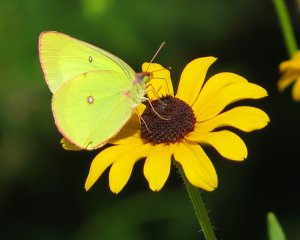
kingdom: Animalia
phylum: Arthropoda
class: Insecta
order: Lepidoptera
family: Pieridae
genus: Colias
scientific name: Colias interior
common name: Pink-edged Sulphur
